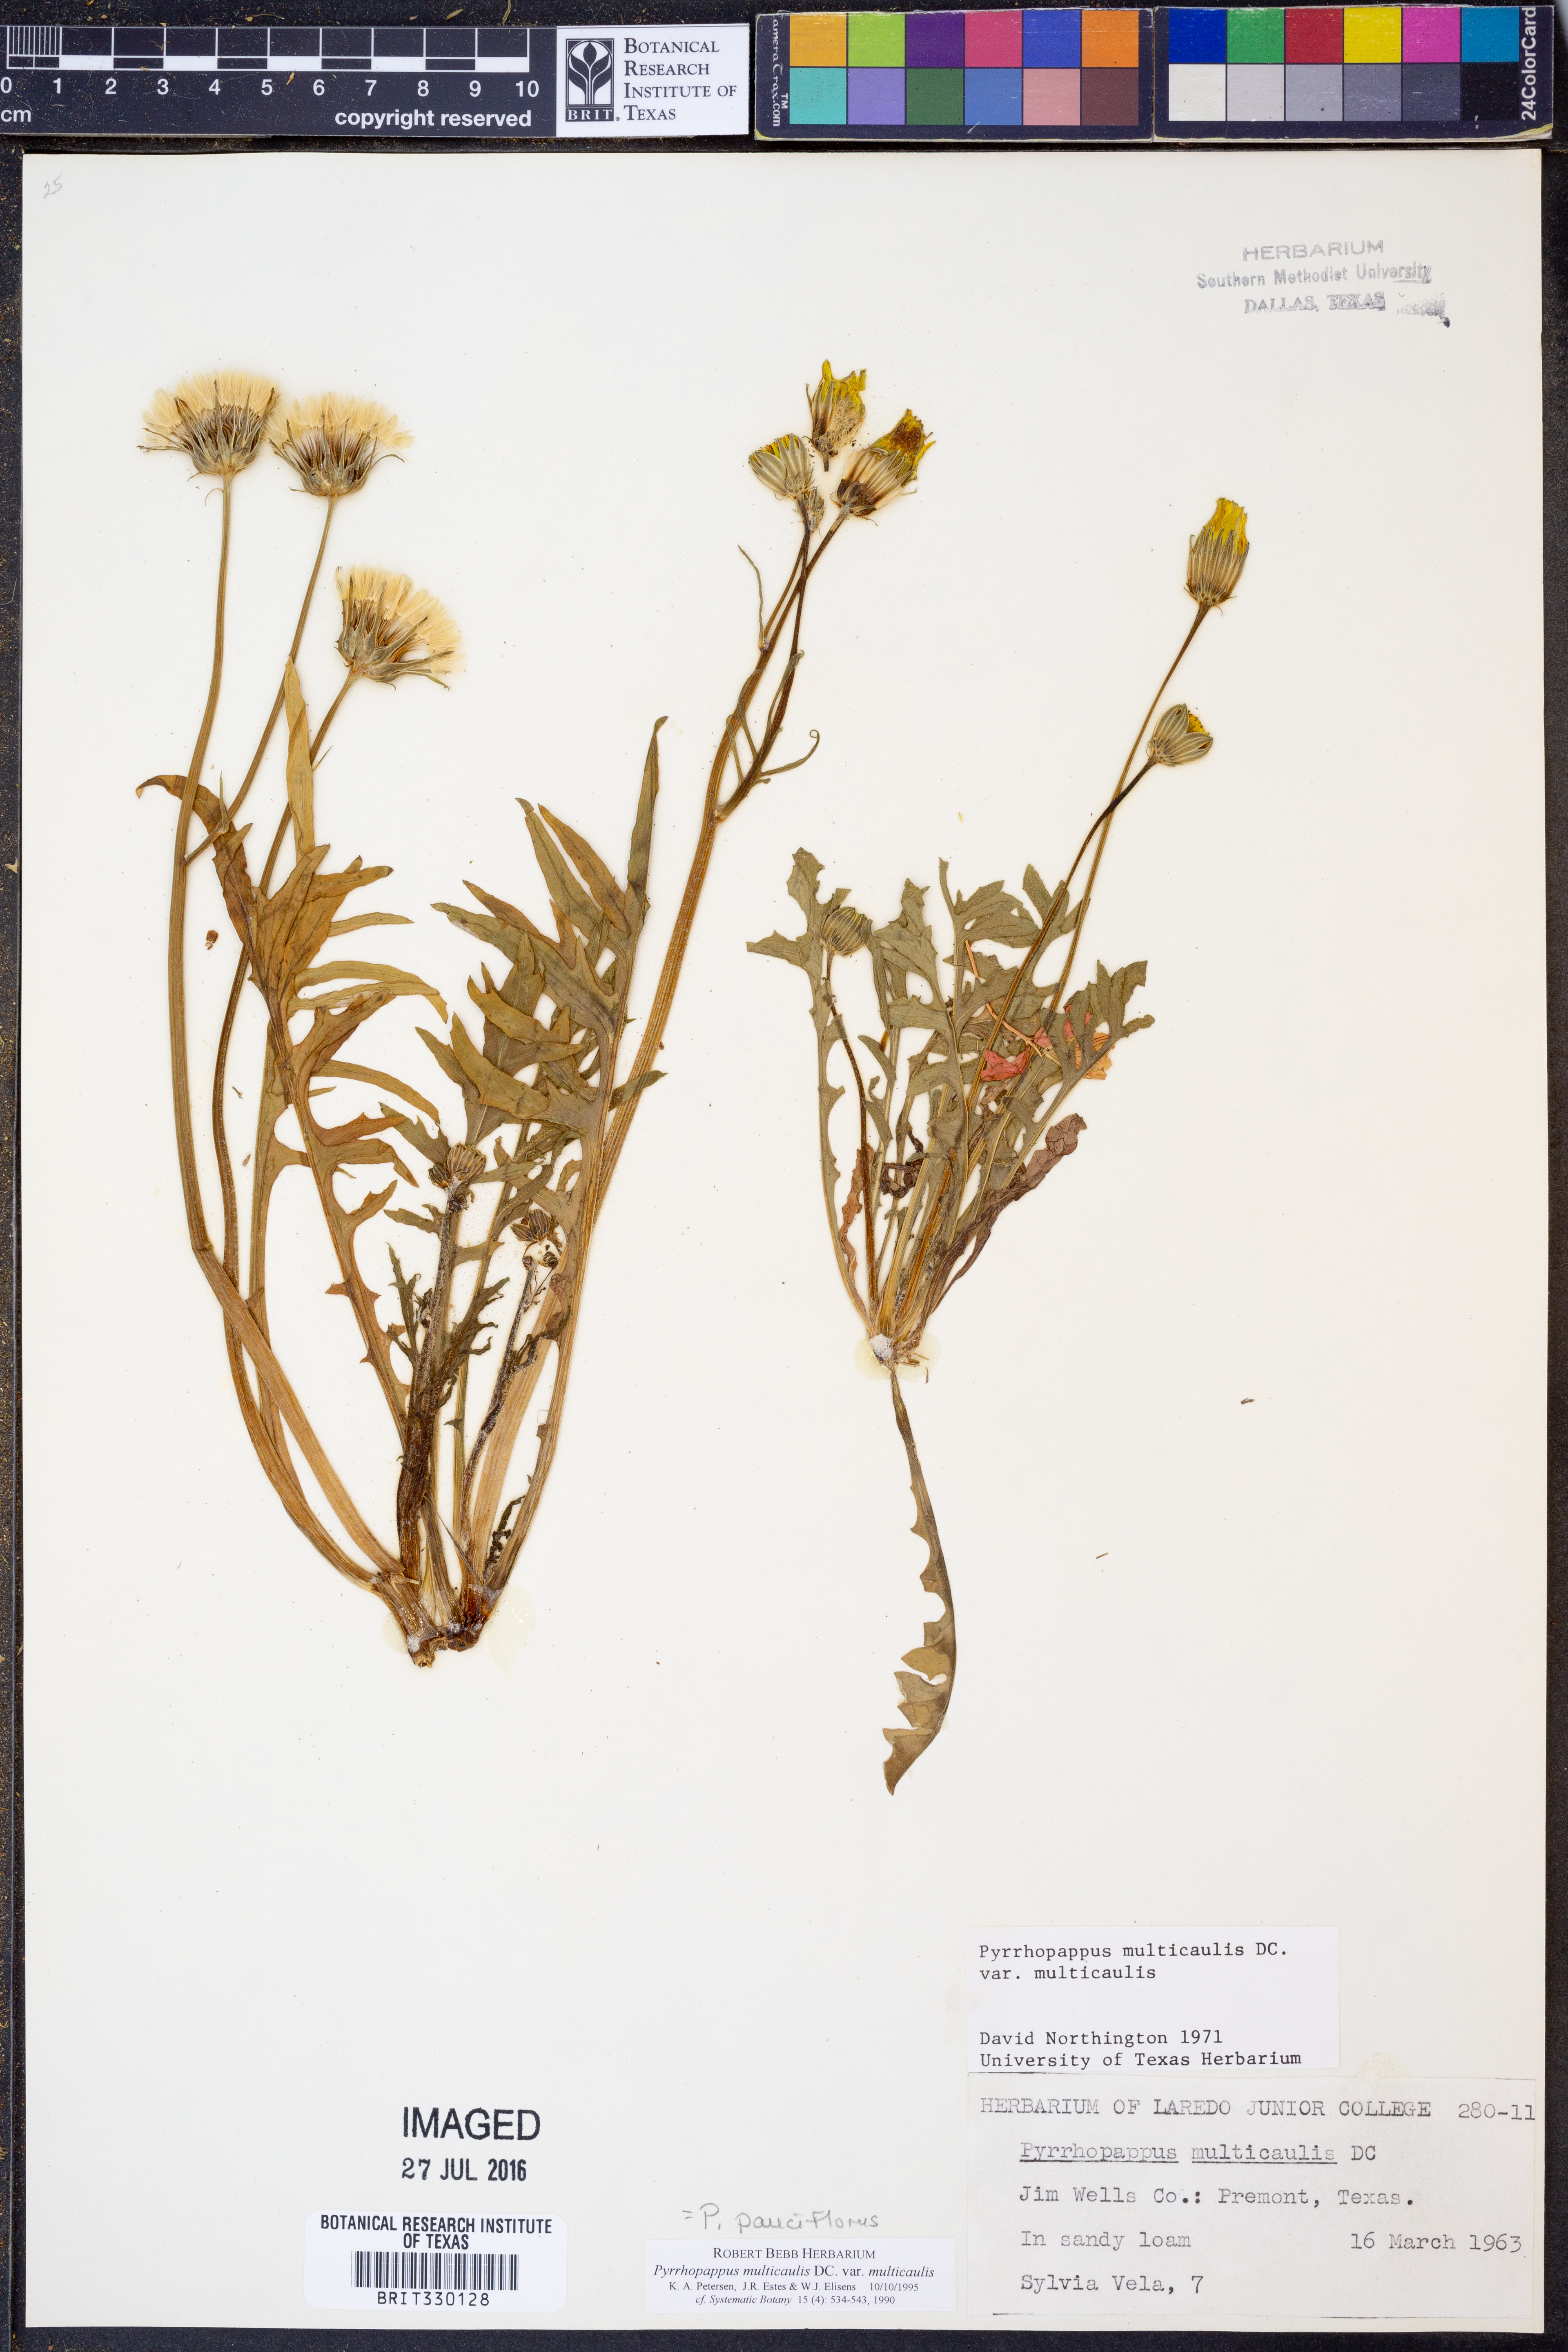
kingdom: Plantae
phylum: Tracheophyta
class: Magnoliopsida
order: Asterales
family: Asteraceae
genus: Pyrrhopappus
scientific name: Pyrrhopappus pauciflorus
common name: Texas false dandelion
